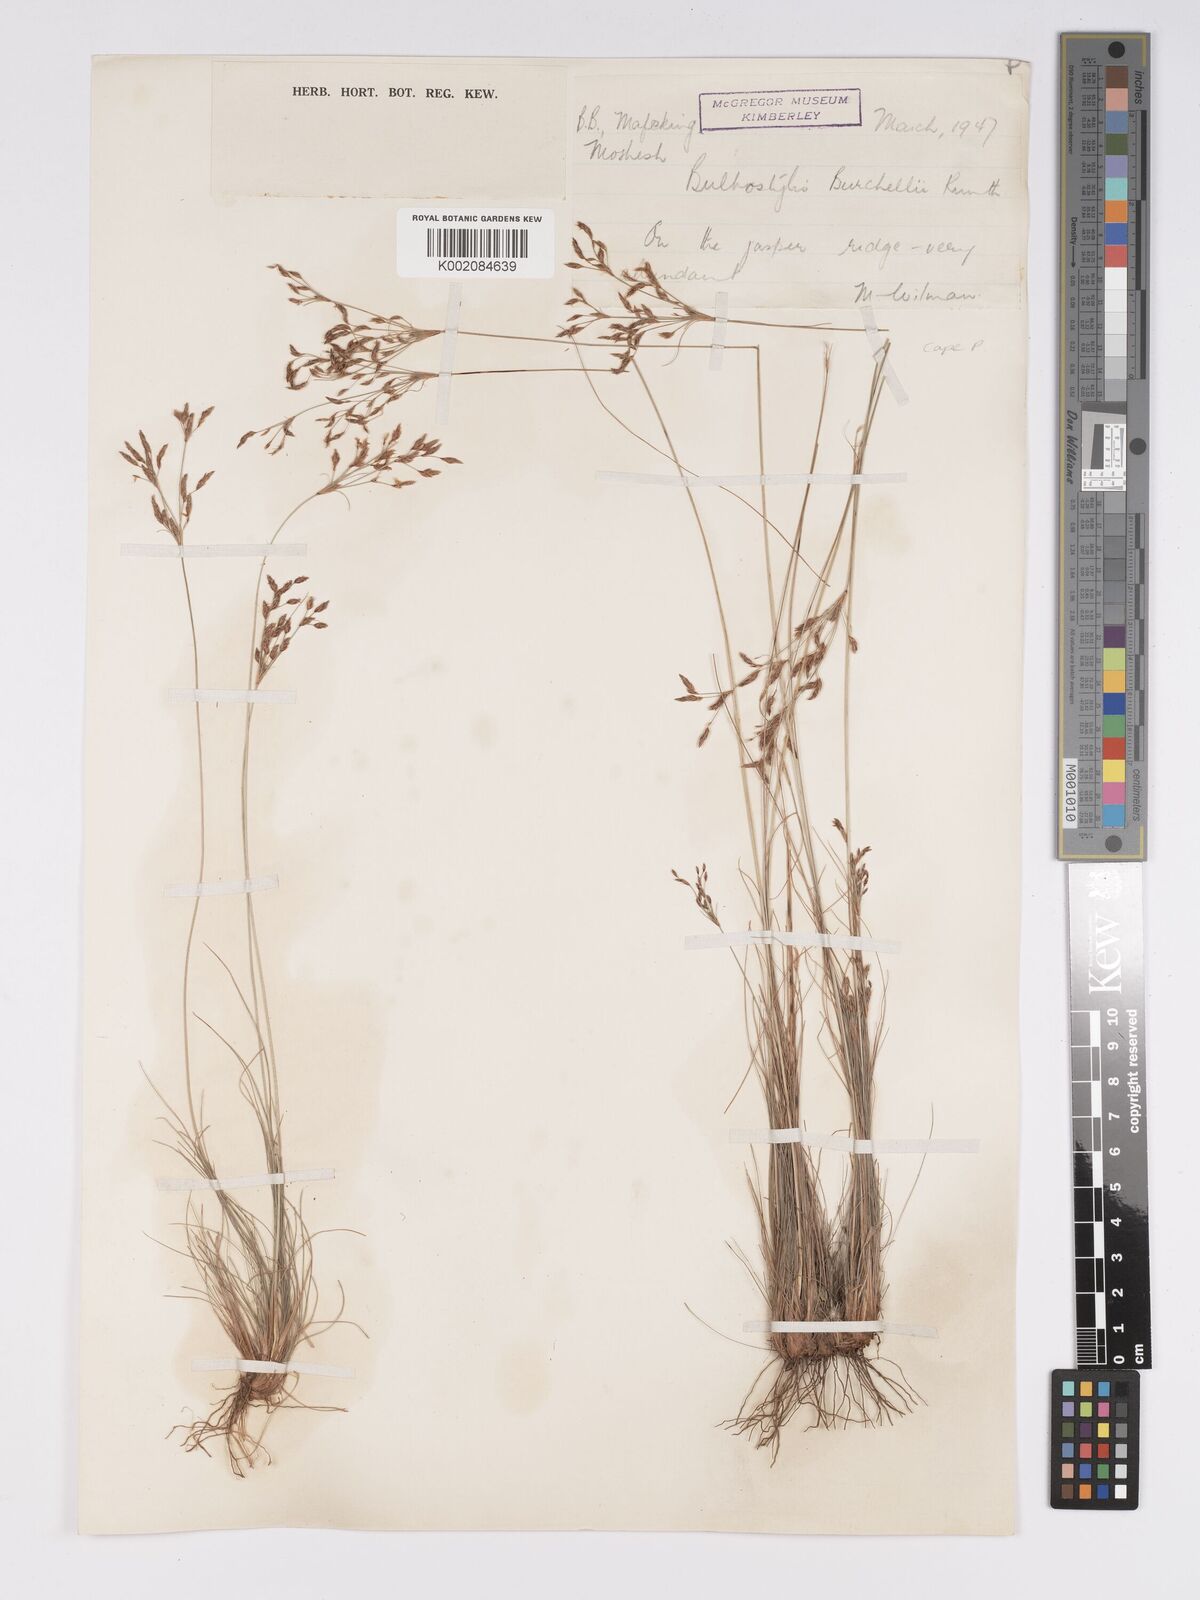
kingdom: Plantae
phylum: Tracheophyta
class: Liliopsida
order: Poales
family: Cyperaceae
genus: Bulbostylis
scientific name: Bulbostylis burchellii
